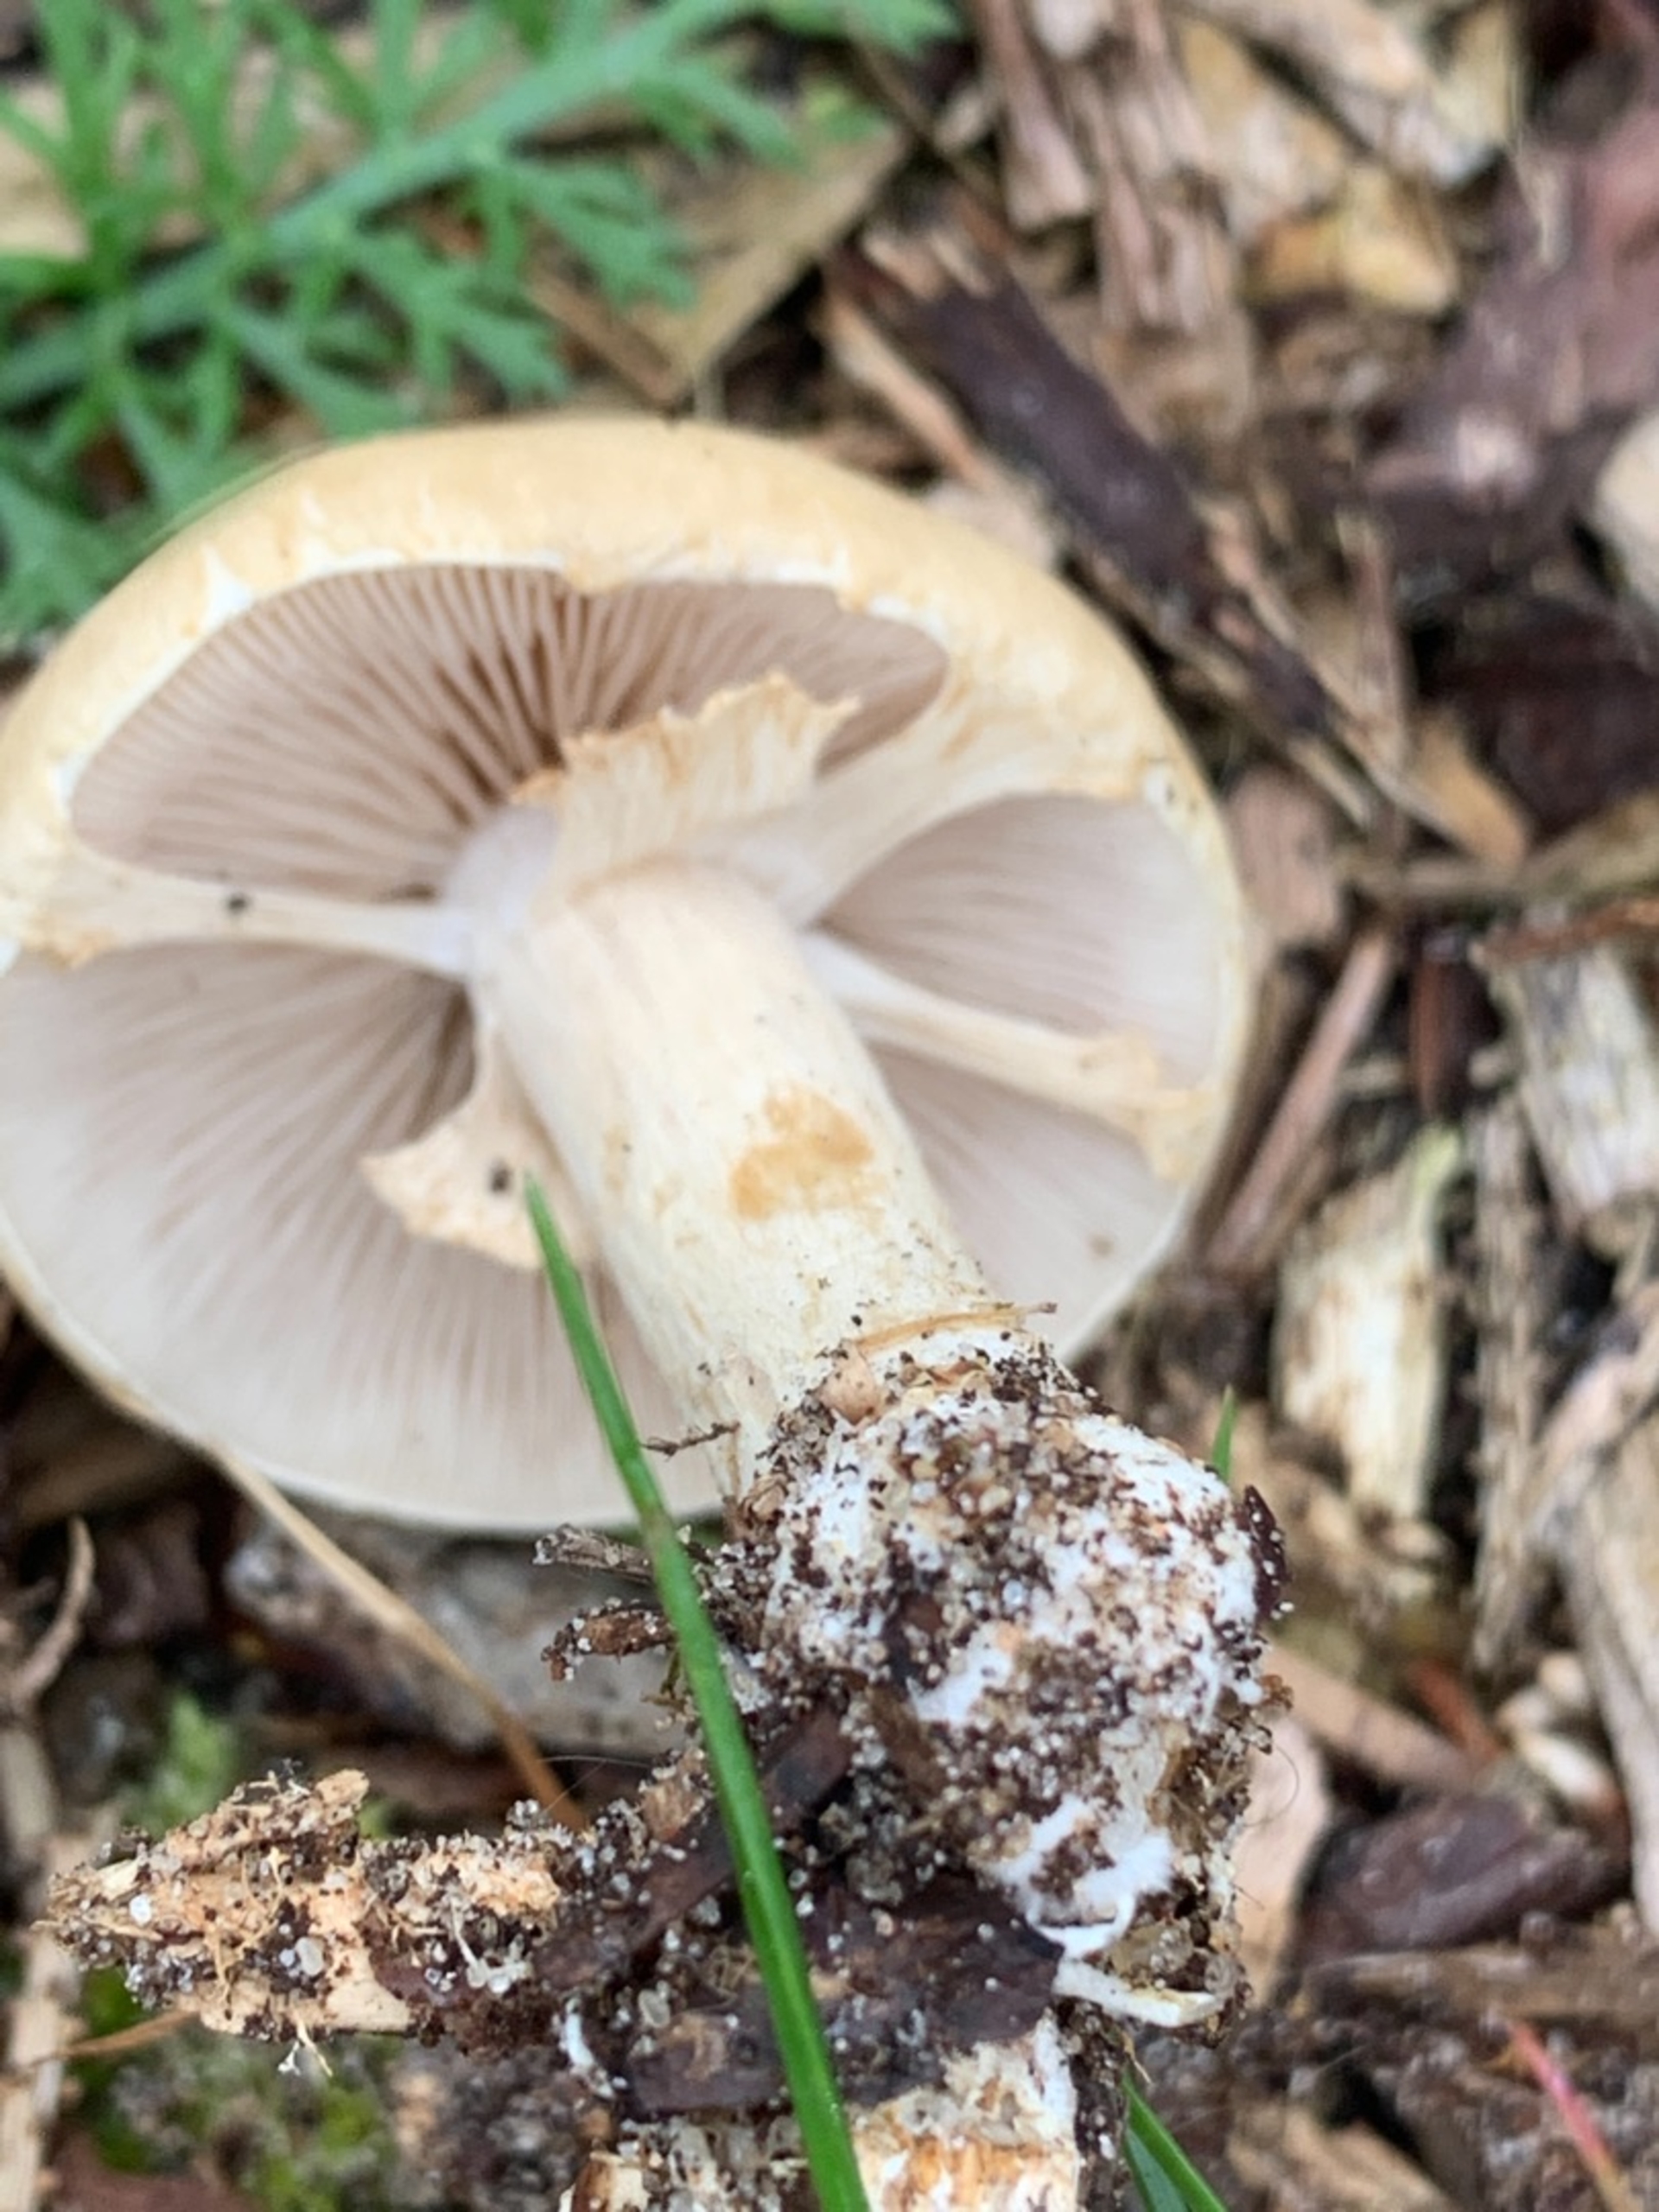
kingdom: Fungi
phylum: Basidiomycota
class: Agaricomycetes
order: Agaricales
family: Strophariaceae
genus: Agrocybe
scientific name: Agrocybe praecox
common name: Tidlig agerhat
